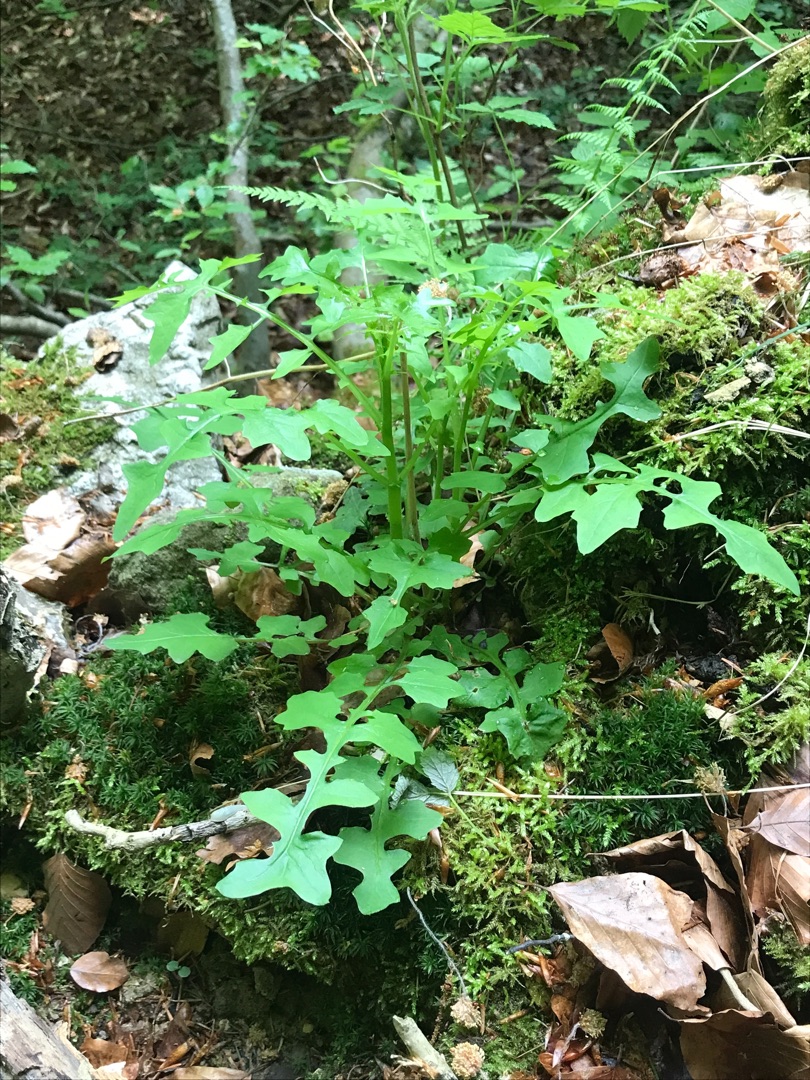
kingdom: Plantae
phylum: Tracheophyta
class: Magnoliopsida
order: Asterales
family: Asteraceae
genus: Mycelis
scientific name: Mycelis muralis
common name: Skov-salat
